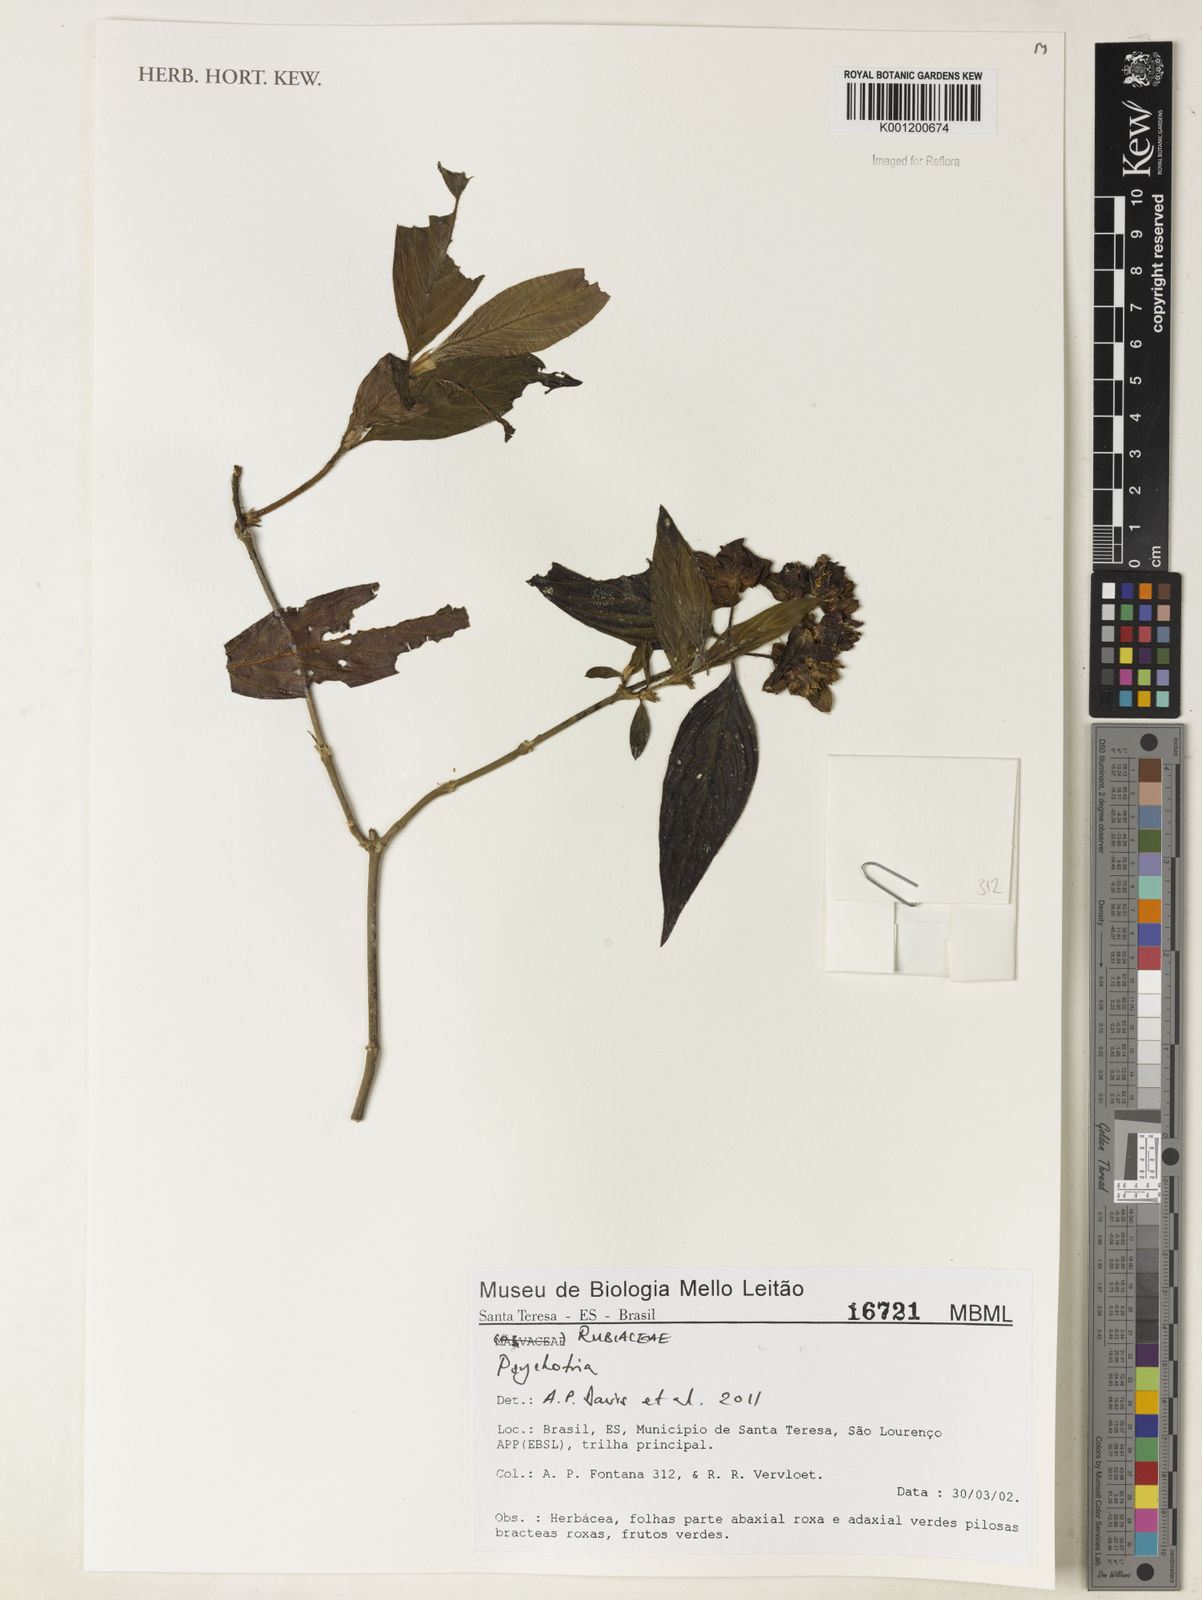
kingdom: Plantae
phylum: Tracheophyta
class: Magnoliopsida
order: Gentianales
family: Rubiaceae
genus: Psychotria
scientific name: Psychotria
